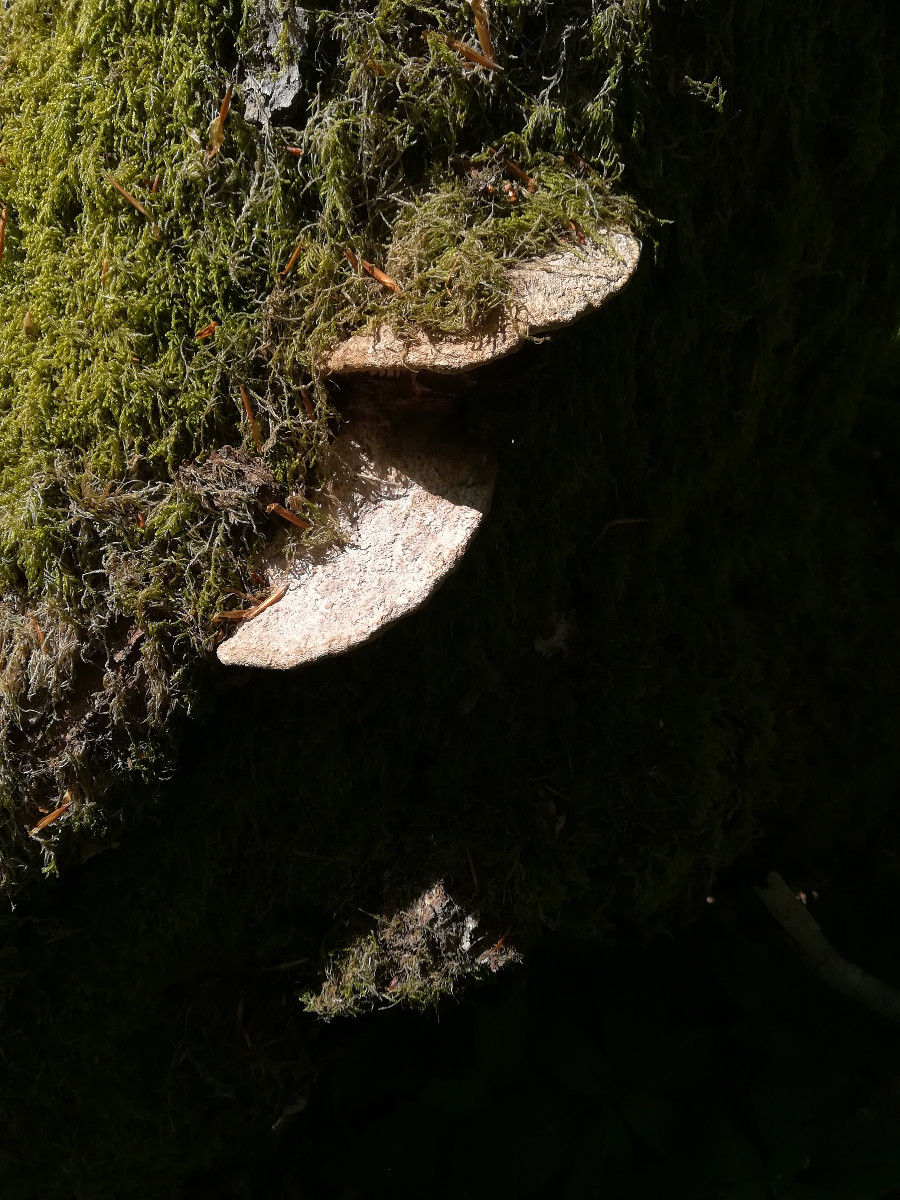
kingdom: Fungi
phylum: Basidiomycota
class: Agaricomycetes
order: Polyporales
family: Fomitopsidaceae
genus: Daedalea
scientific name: Daedalea quercina
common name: ege-labyrintsvamp
